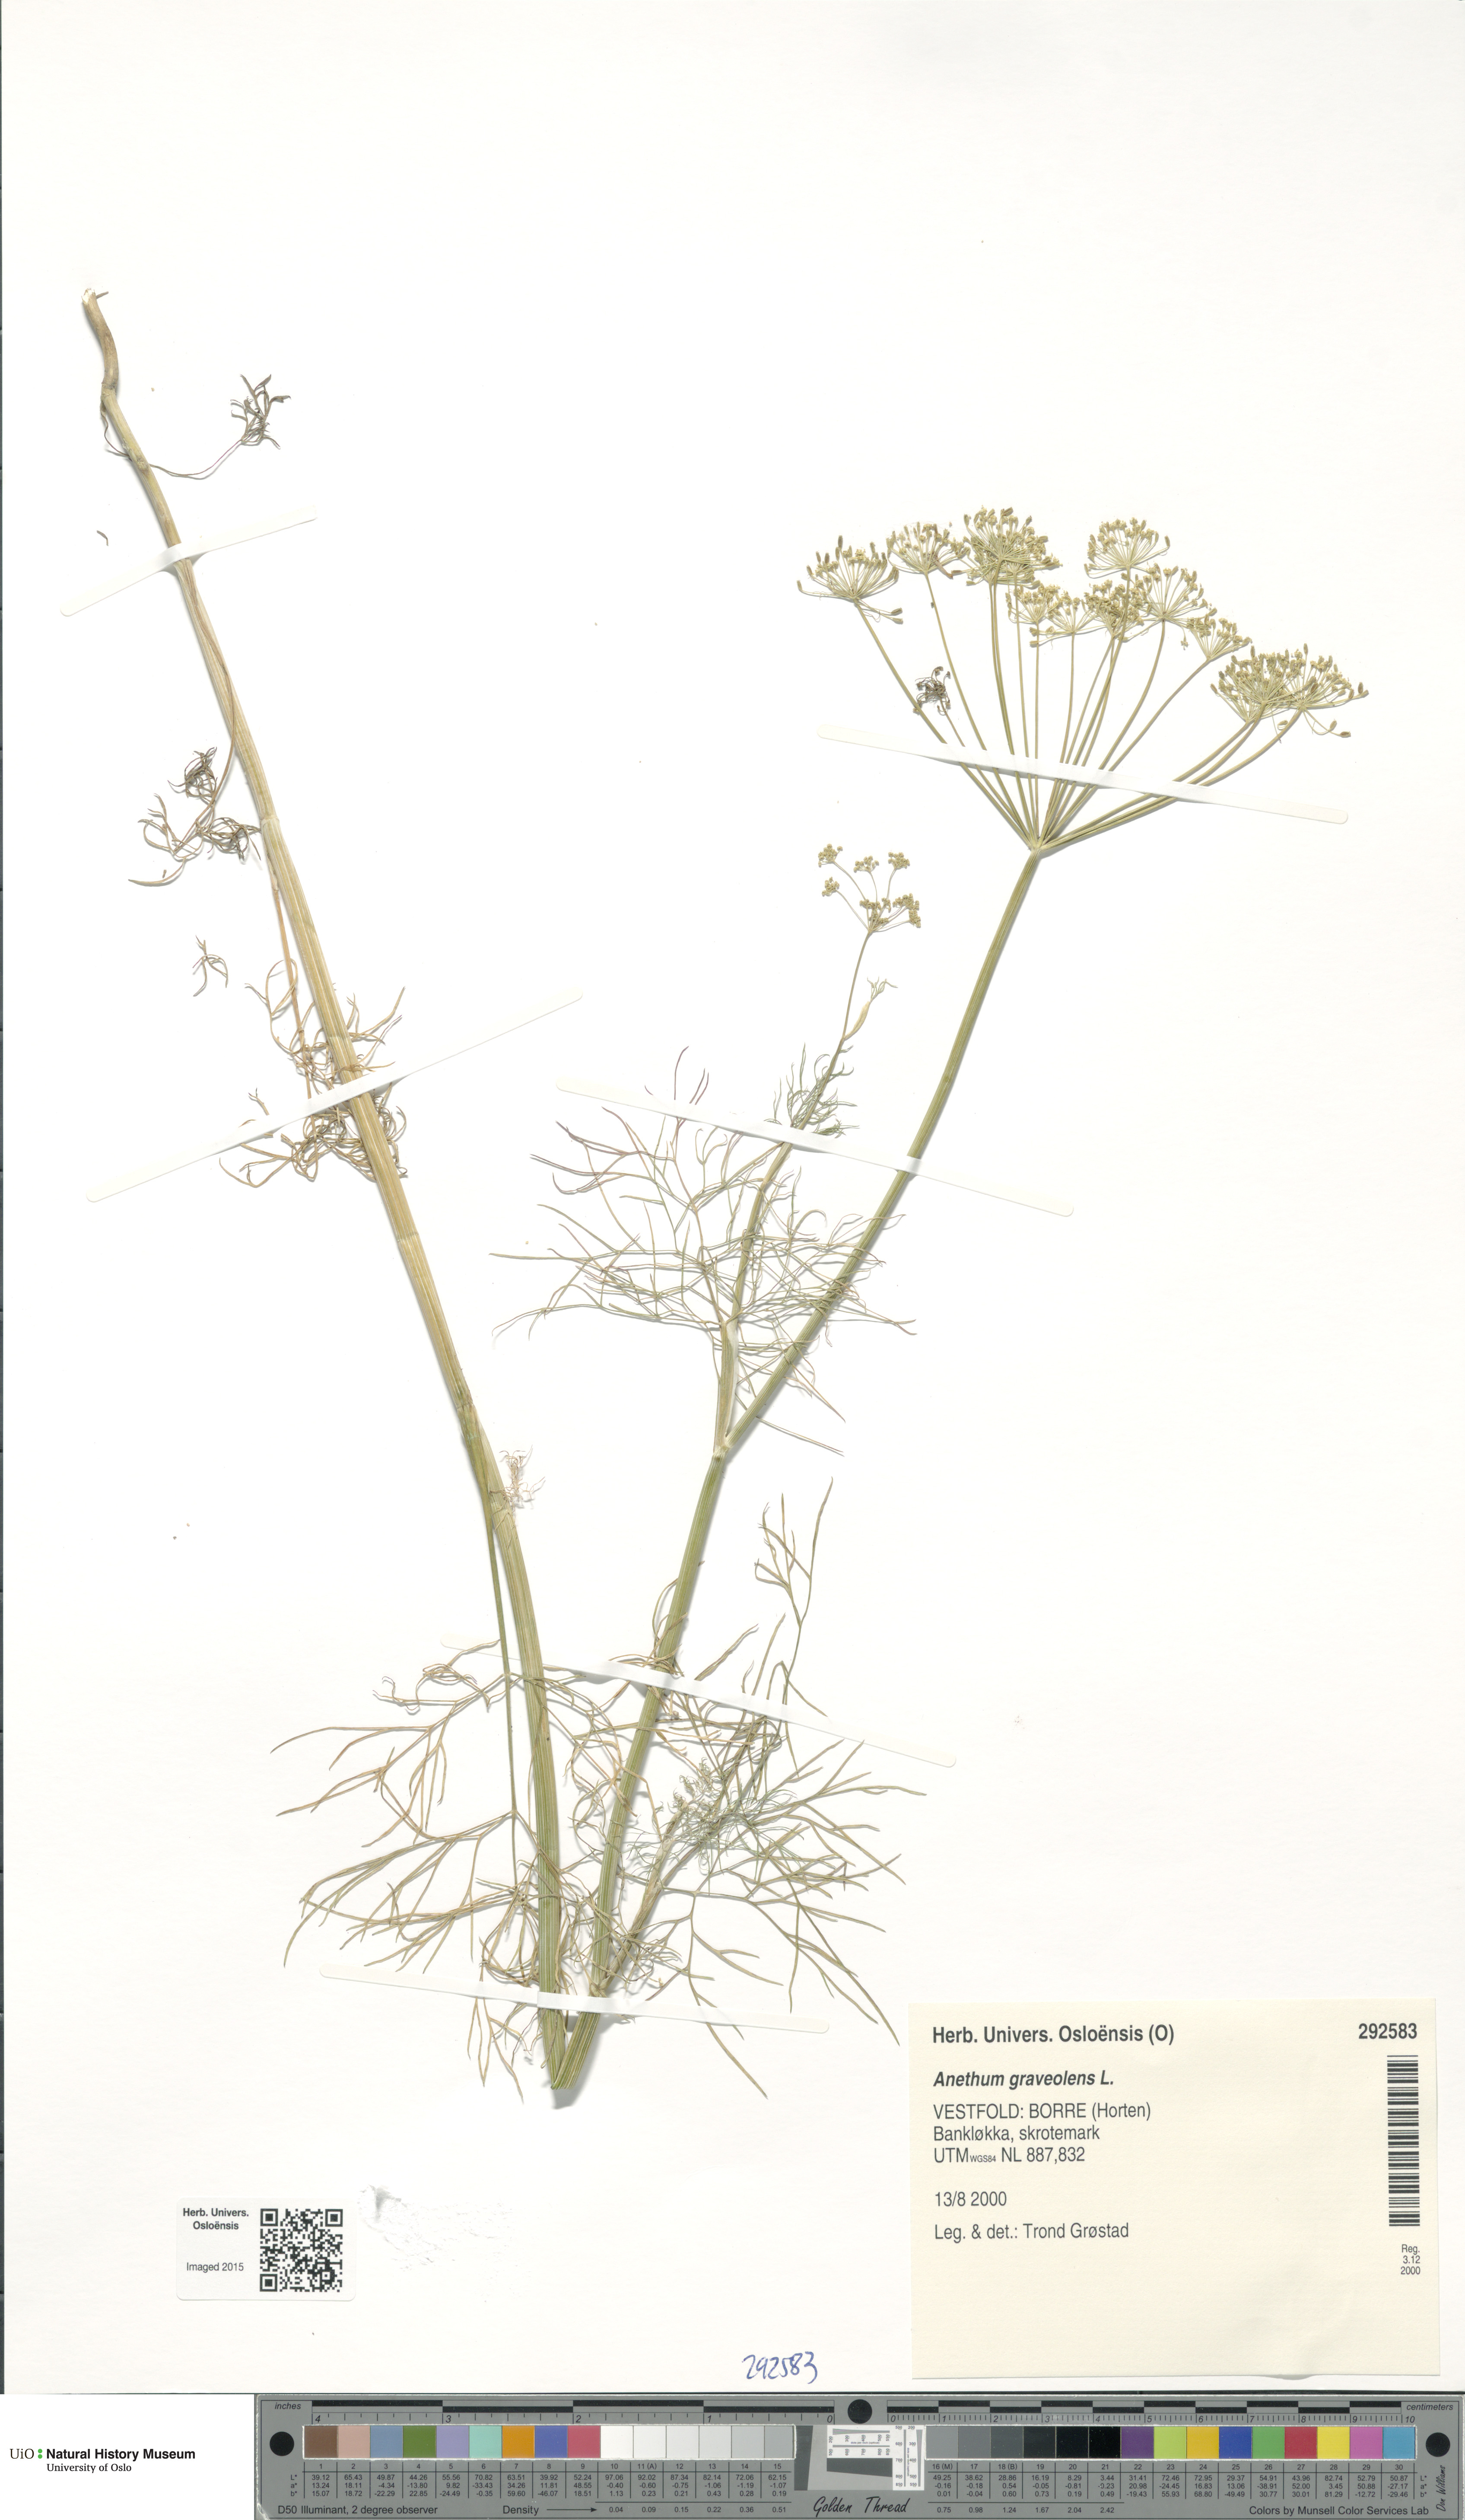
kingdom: Plantae
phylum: Tracheophyta
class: Magnoliopsida
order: Apiales
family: Apiaceae
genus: Anethum
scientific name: Anethum graveolens
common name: Dill
